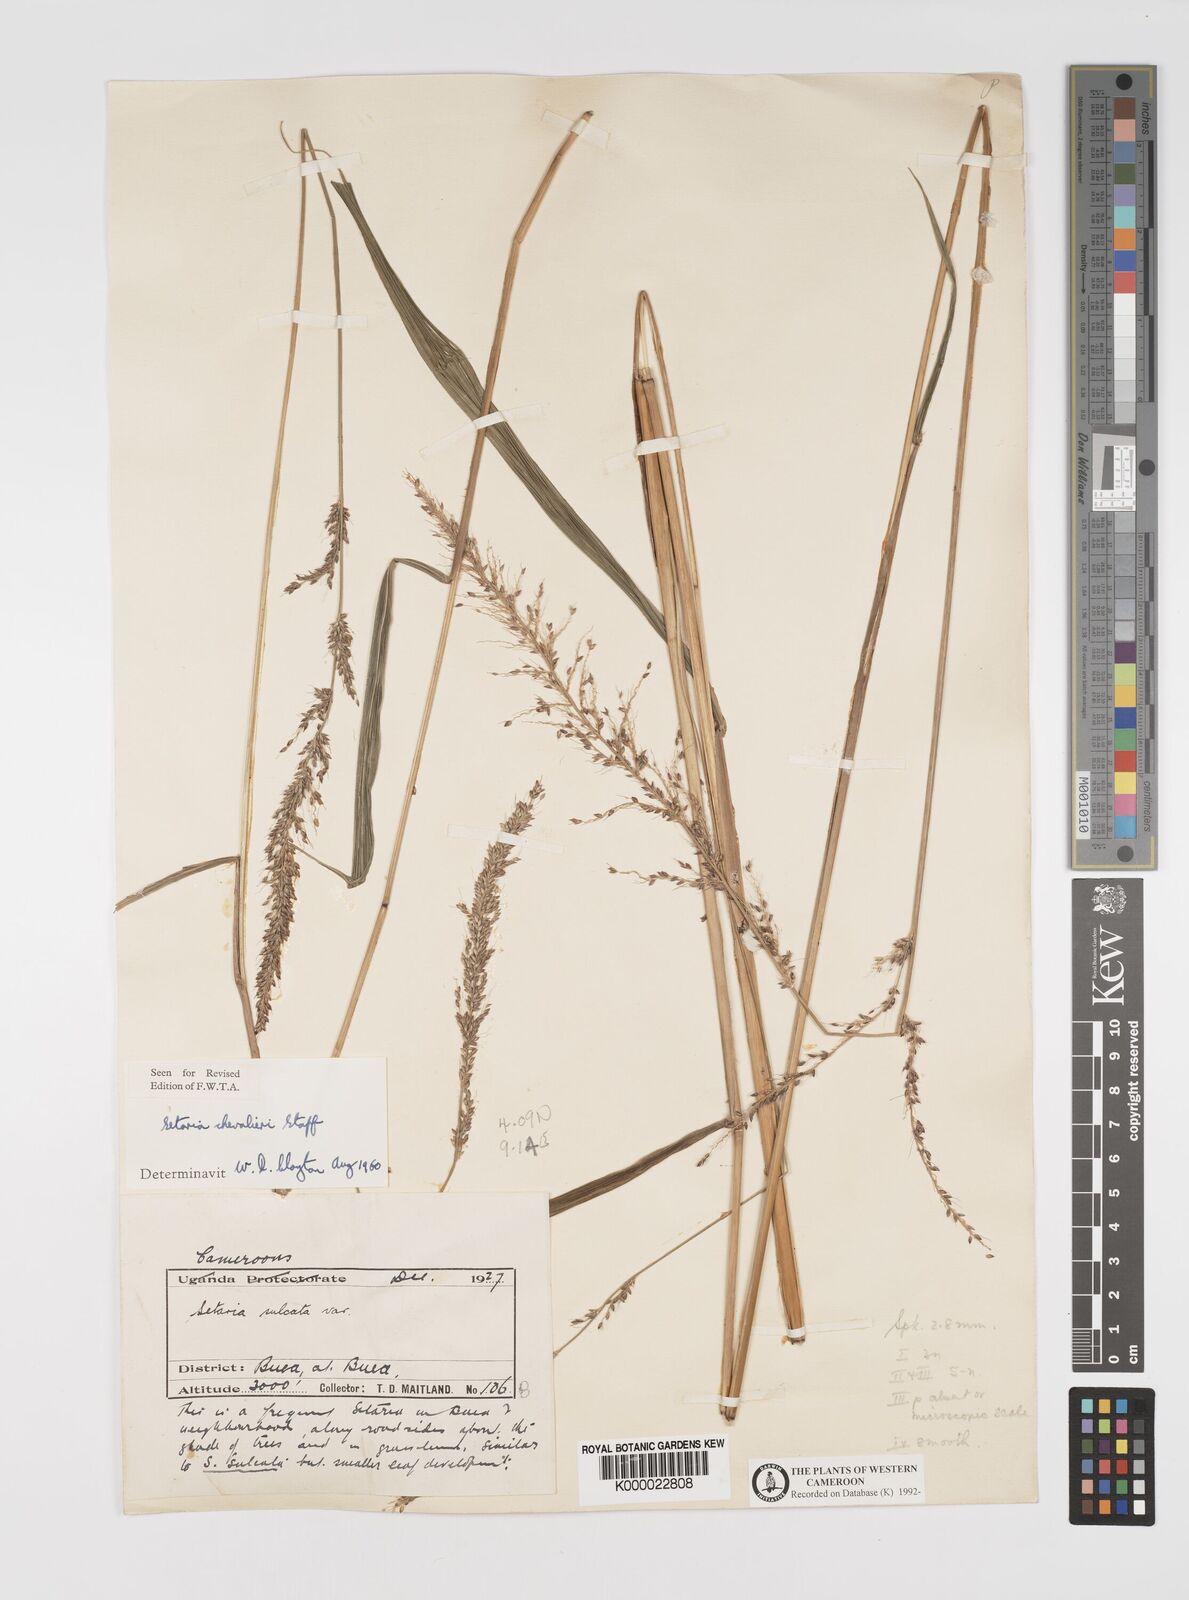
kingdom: Plantae
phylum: Tracheophyta
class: Liliopsida
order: Poales
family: Poaceae
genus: Setaria
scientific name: Setaria megaphylla
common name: Bigleaf bristlegrass
